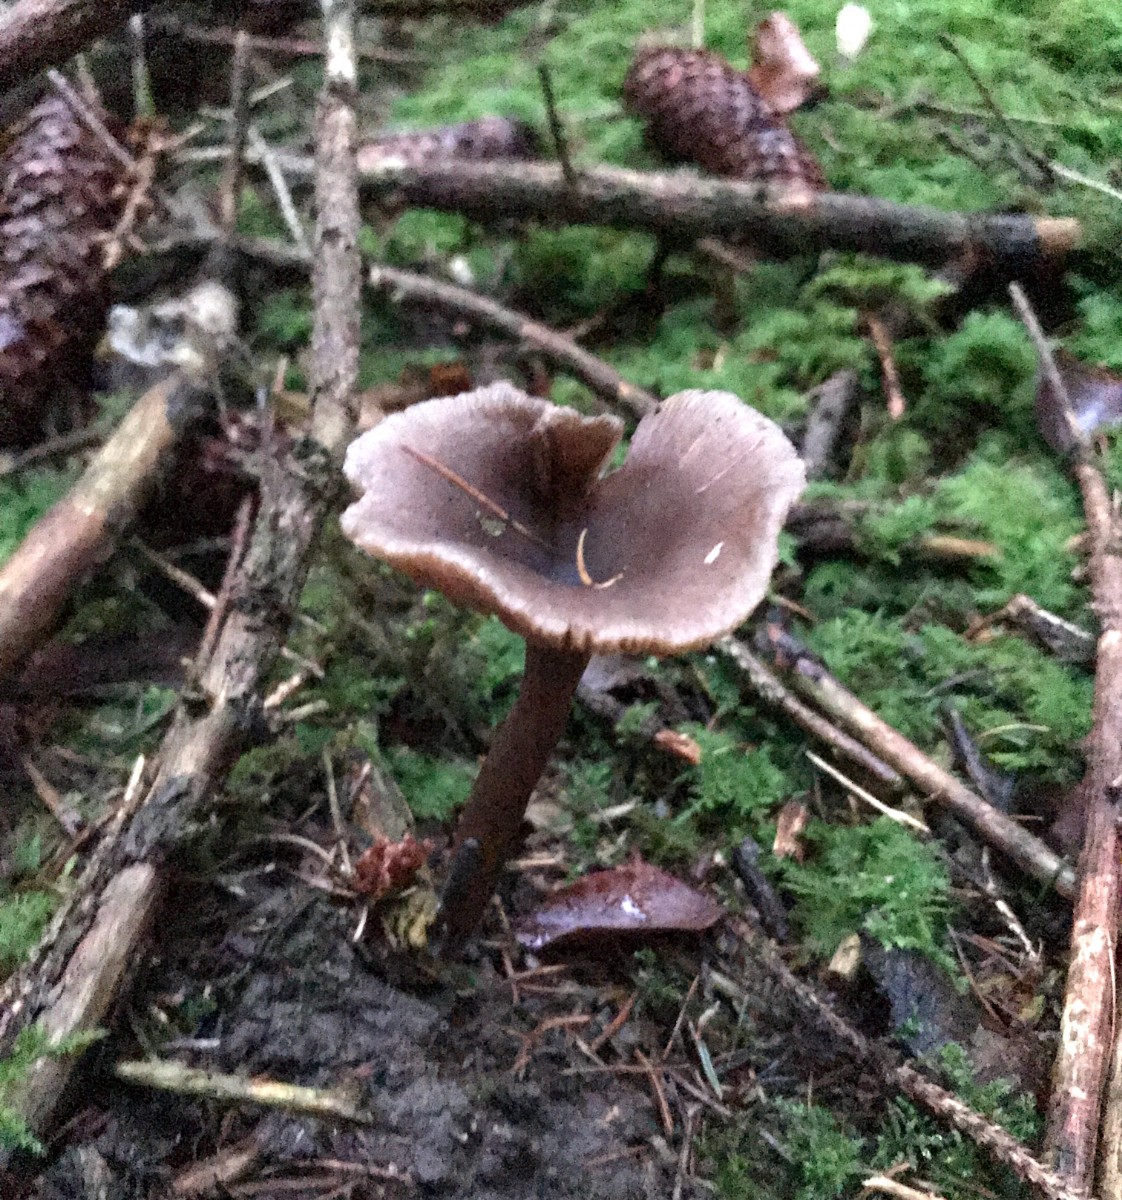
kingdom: Fungi
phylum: Basidiomycota
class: Agaricomycetes
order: Agaricales
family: Pseudoclitocybaceae
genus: Pseudoclitocybe
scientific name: Pseudoclitocybe cyathiformis
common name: almindelig bægertragthat
